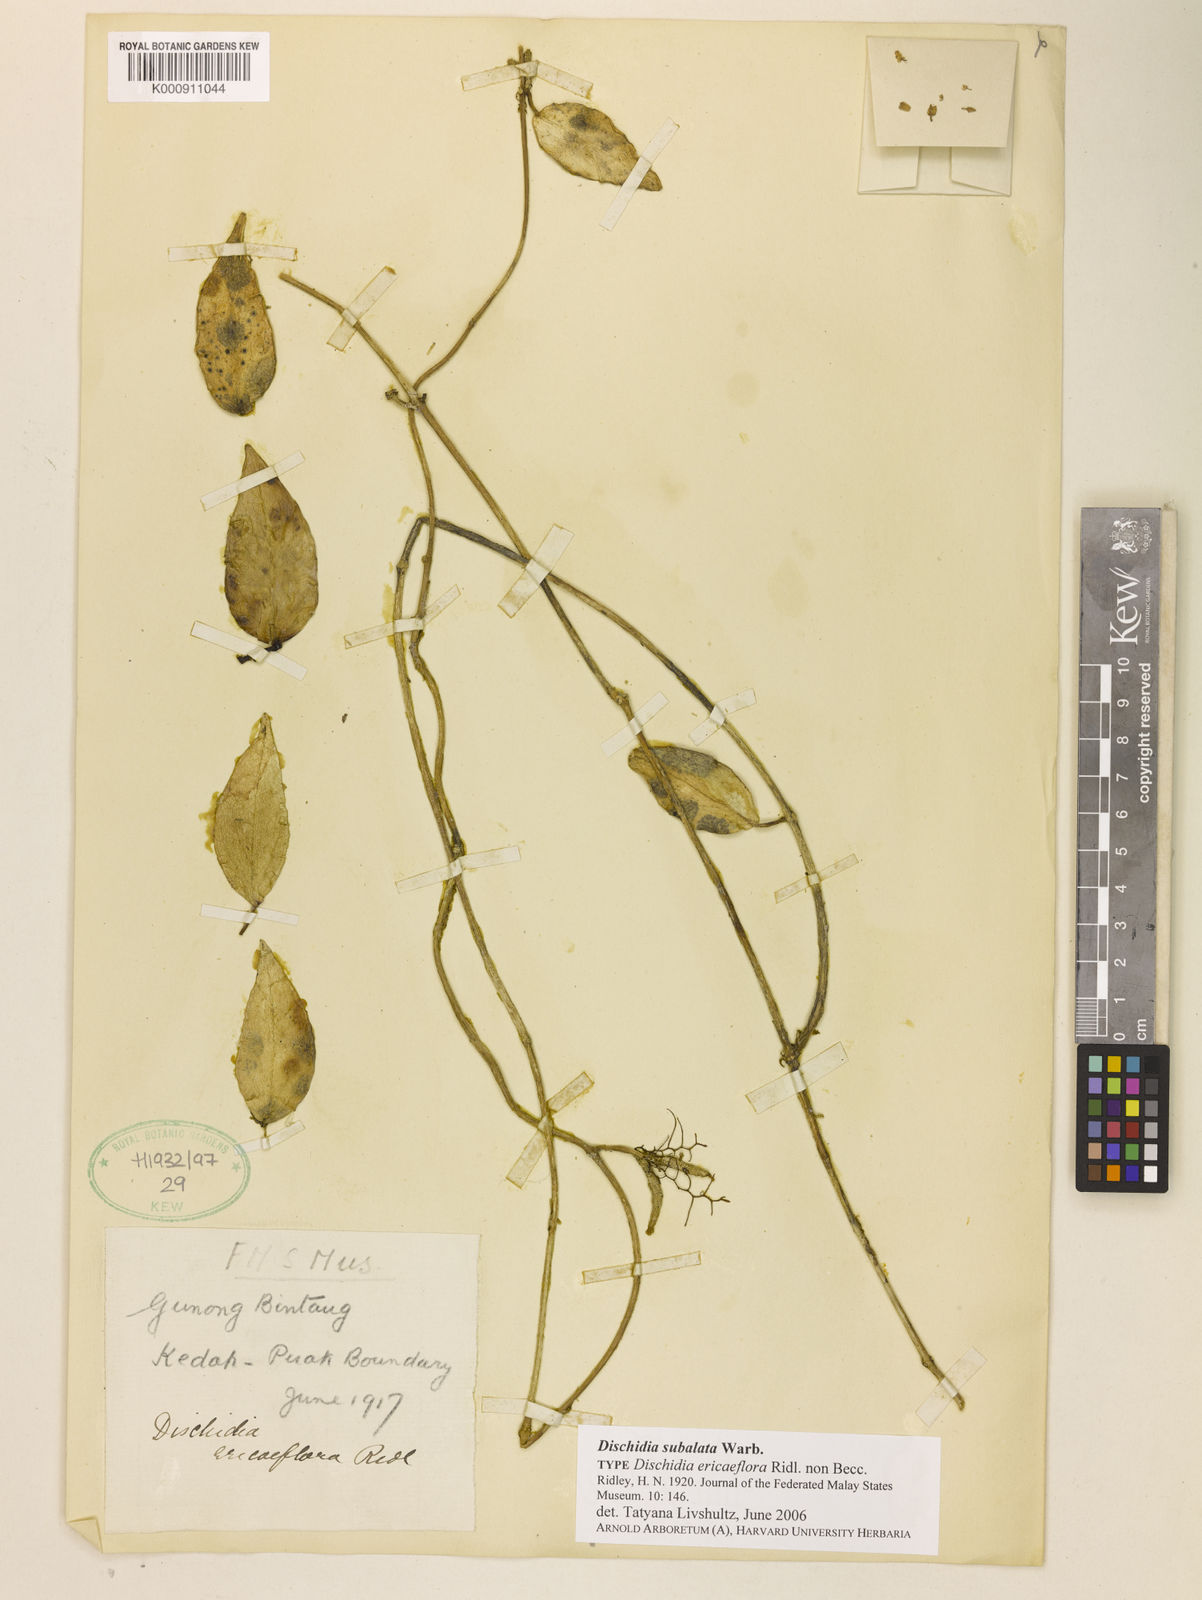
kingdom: Plantae
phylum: Tracheophyta
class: Magnoliopsida
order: Gentianales
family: Apocynaceae
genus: Dischidia
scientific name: Dischidia
